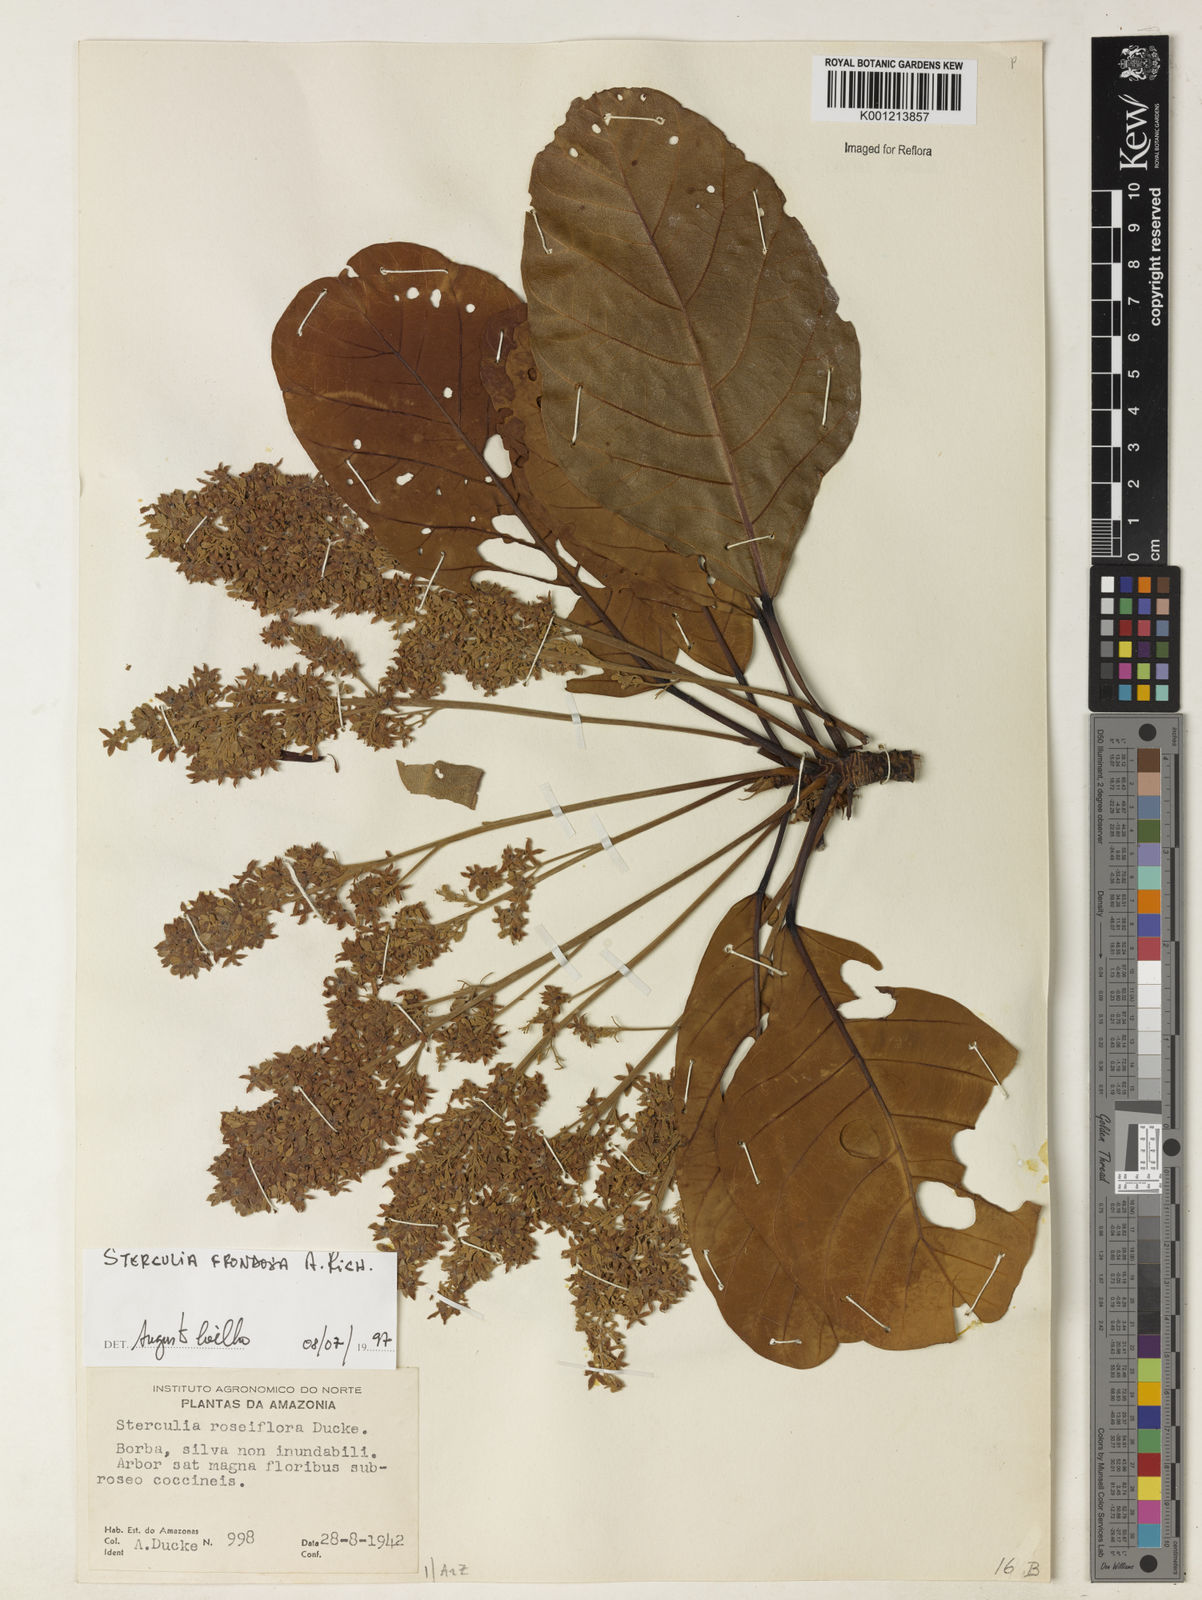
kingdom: Plantae
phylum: Tracheophyta
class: Magnoliopsida
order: Malvales
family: Malvaceae
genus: Sterculia
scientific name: Sterculia frondosa
